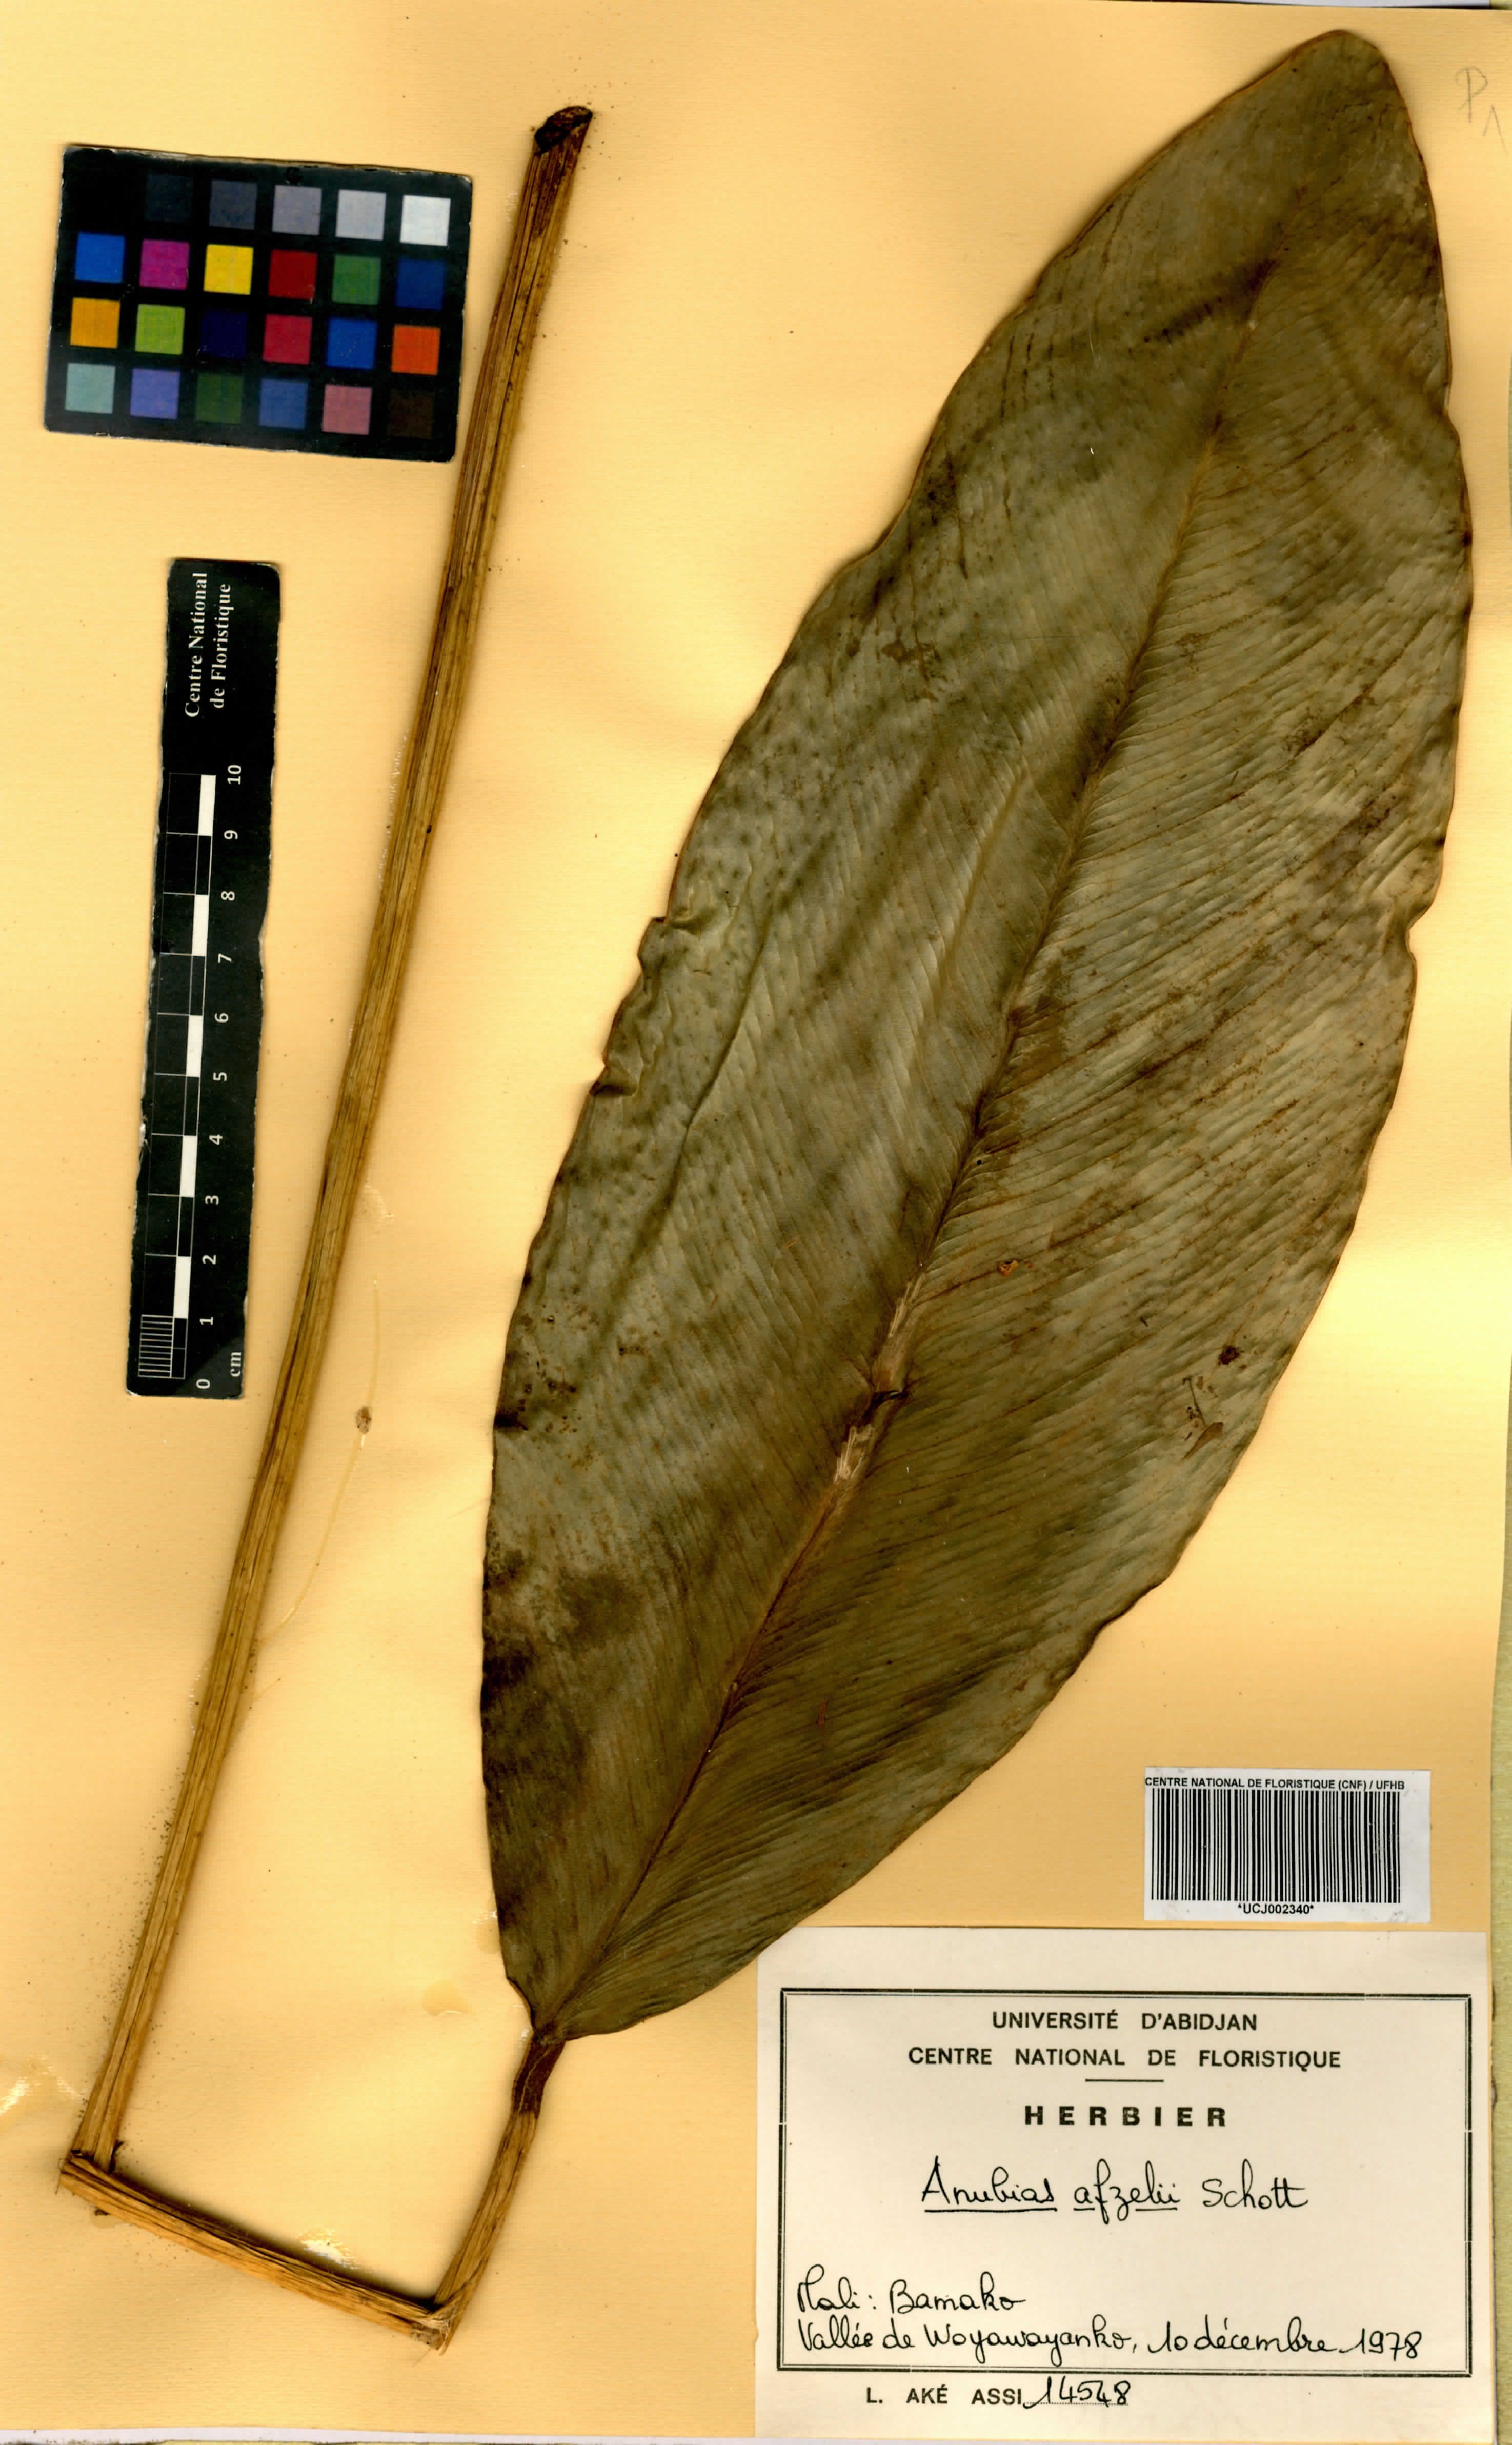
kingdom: Plantae
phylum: Tracheophyta
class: Liliopsida
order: Alismatales
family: Araceae
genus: Anubias
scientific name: Anubias afzelii
